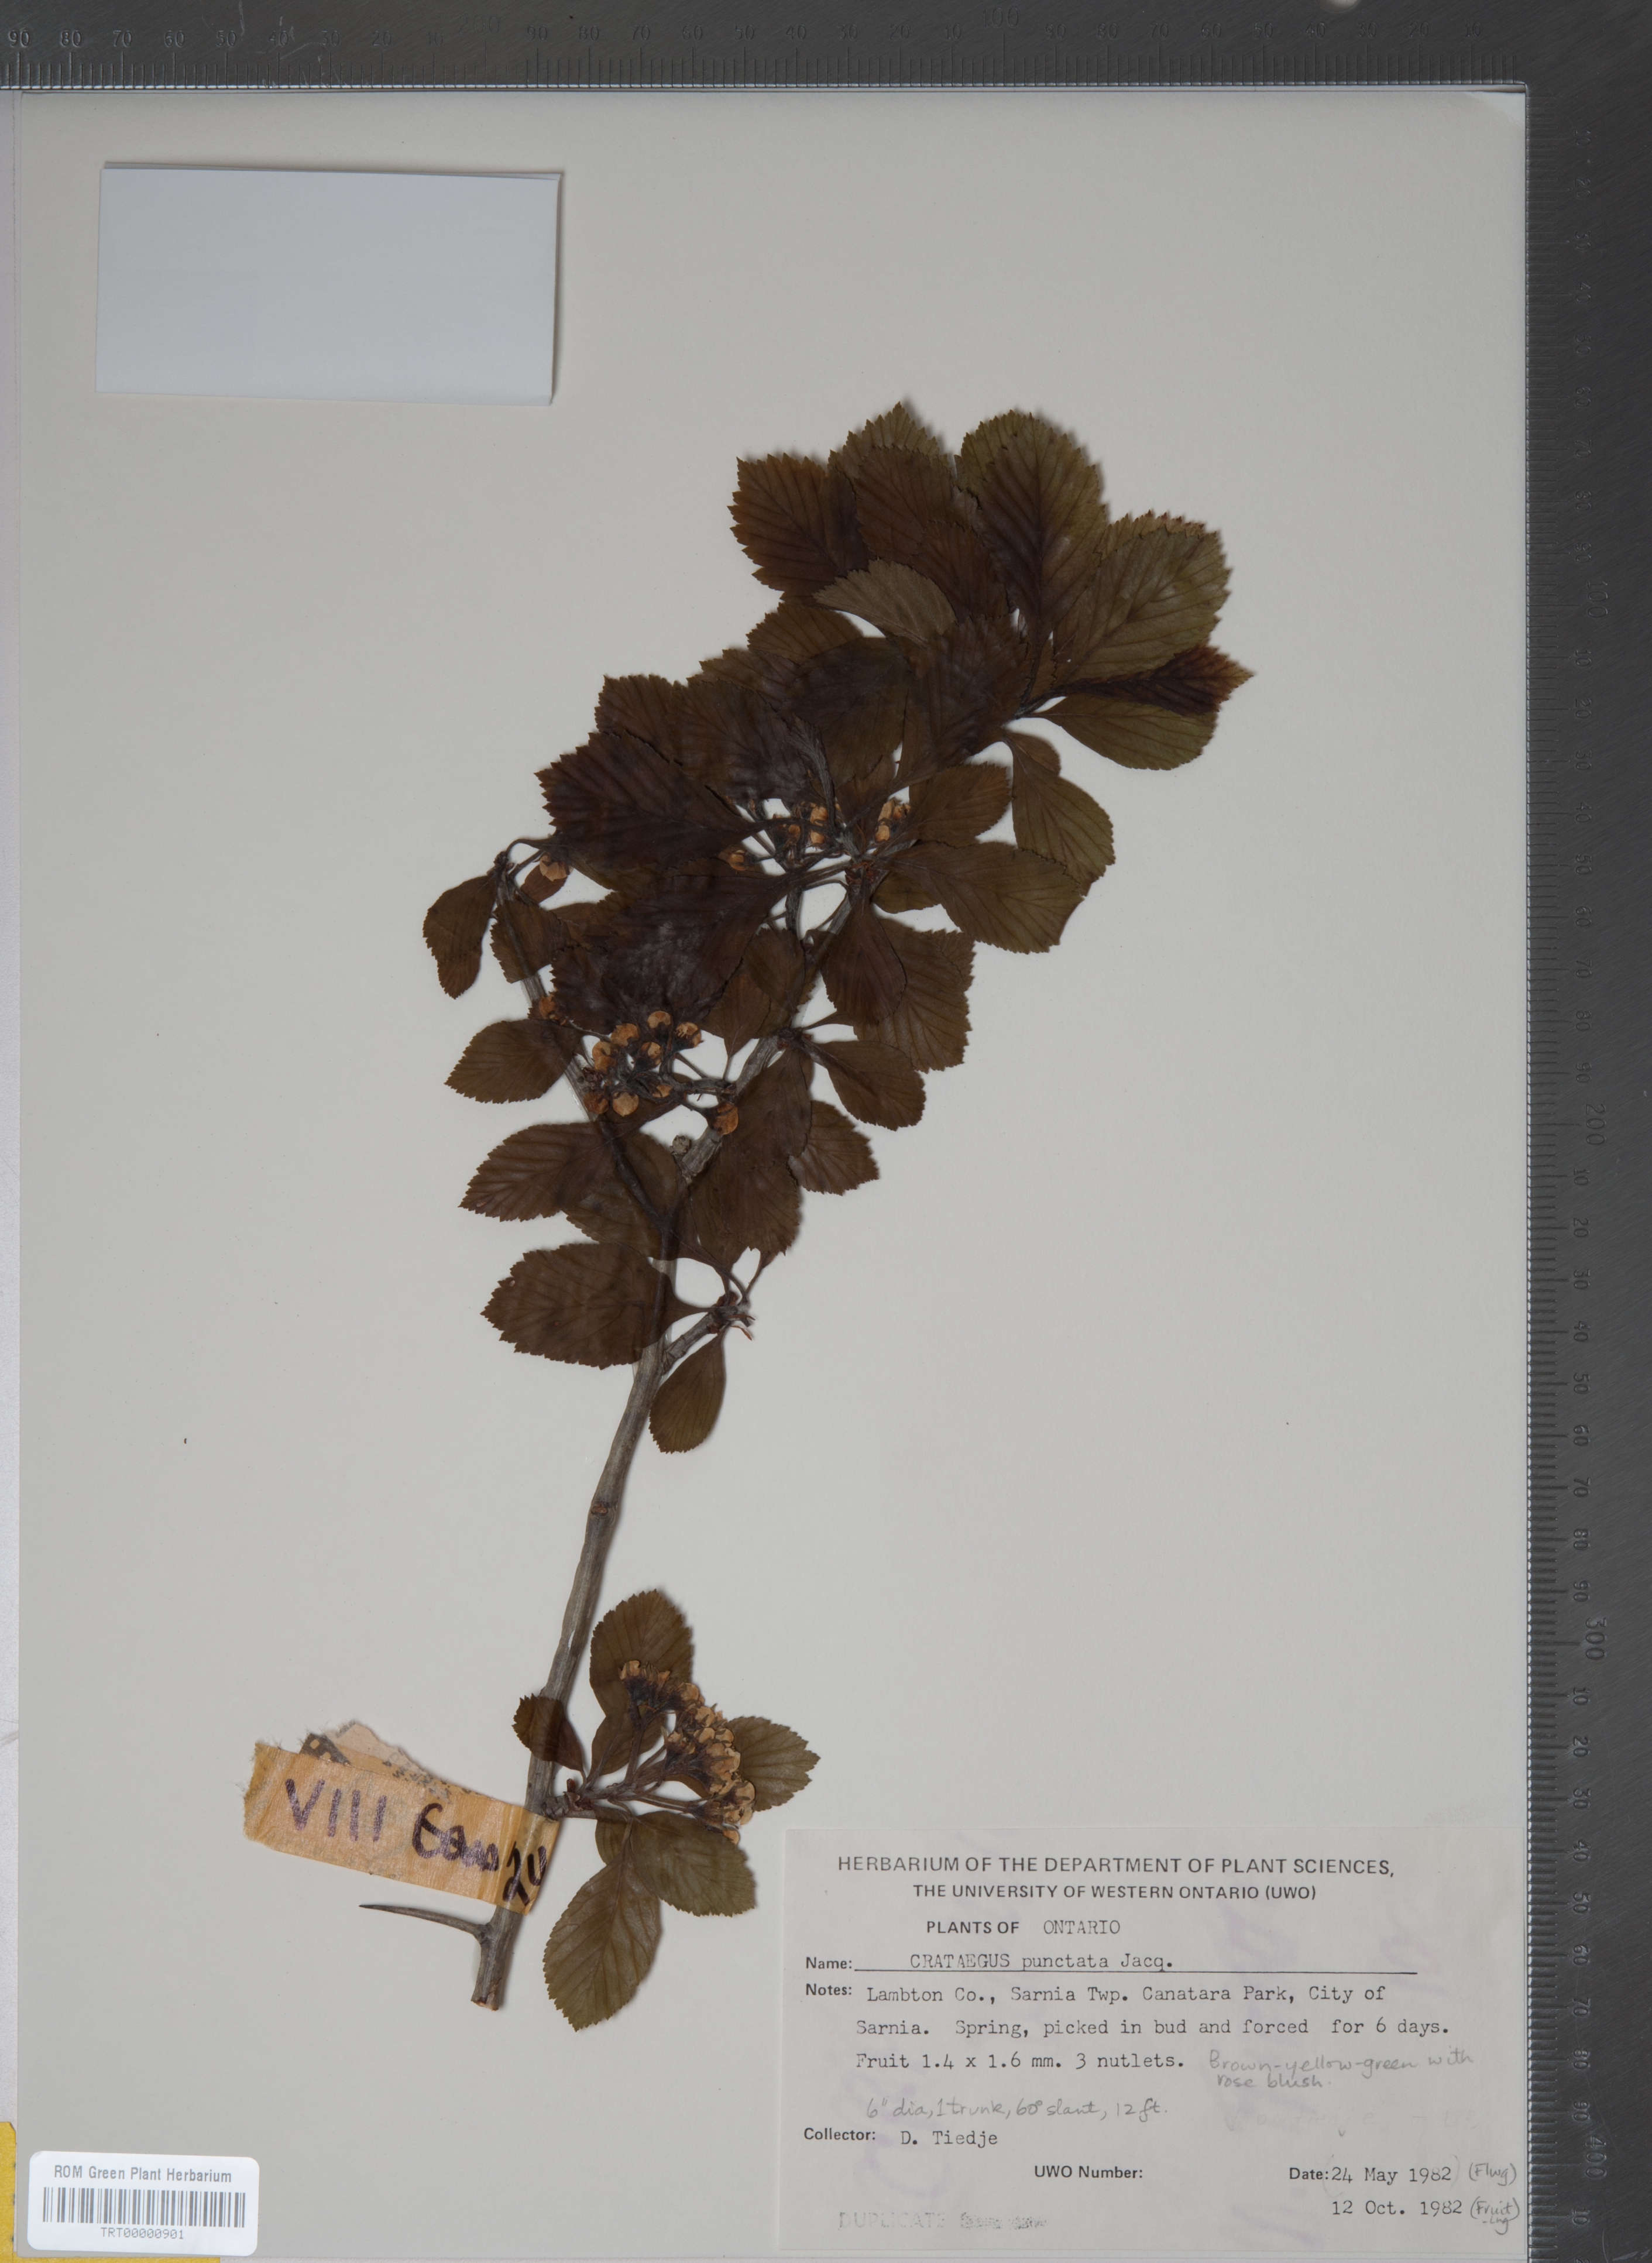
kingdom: Plantae
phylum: Tracheophyta
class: Magnoliopsida
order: Rosales
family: Rosaceae
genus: Crataegus
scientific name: Crataegus punctata
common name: Dotted hawthorn
